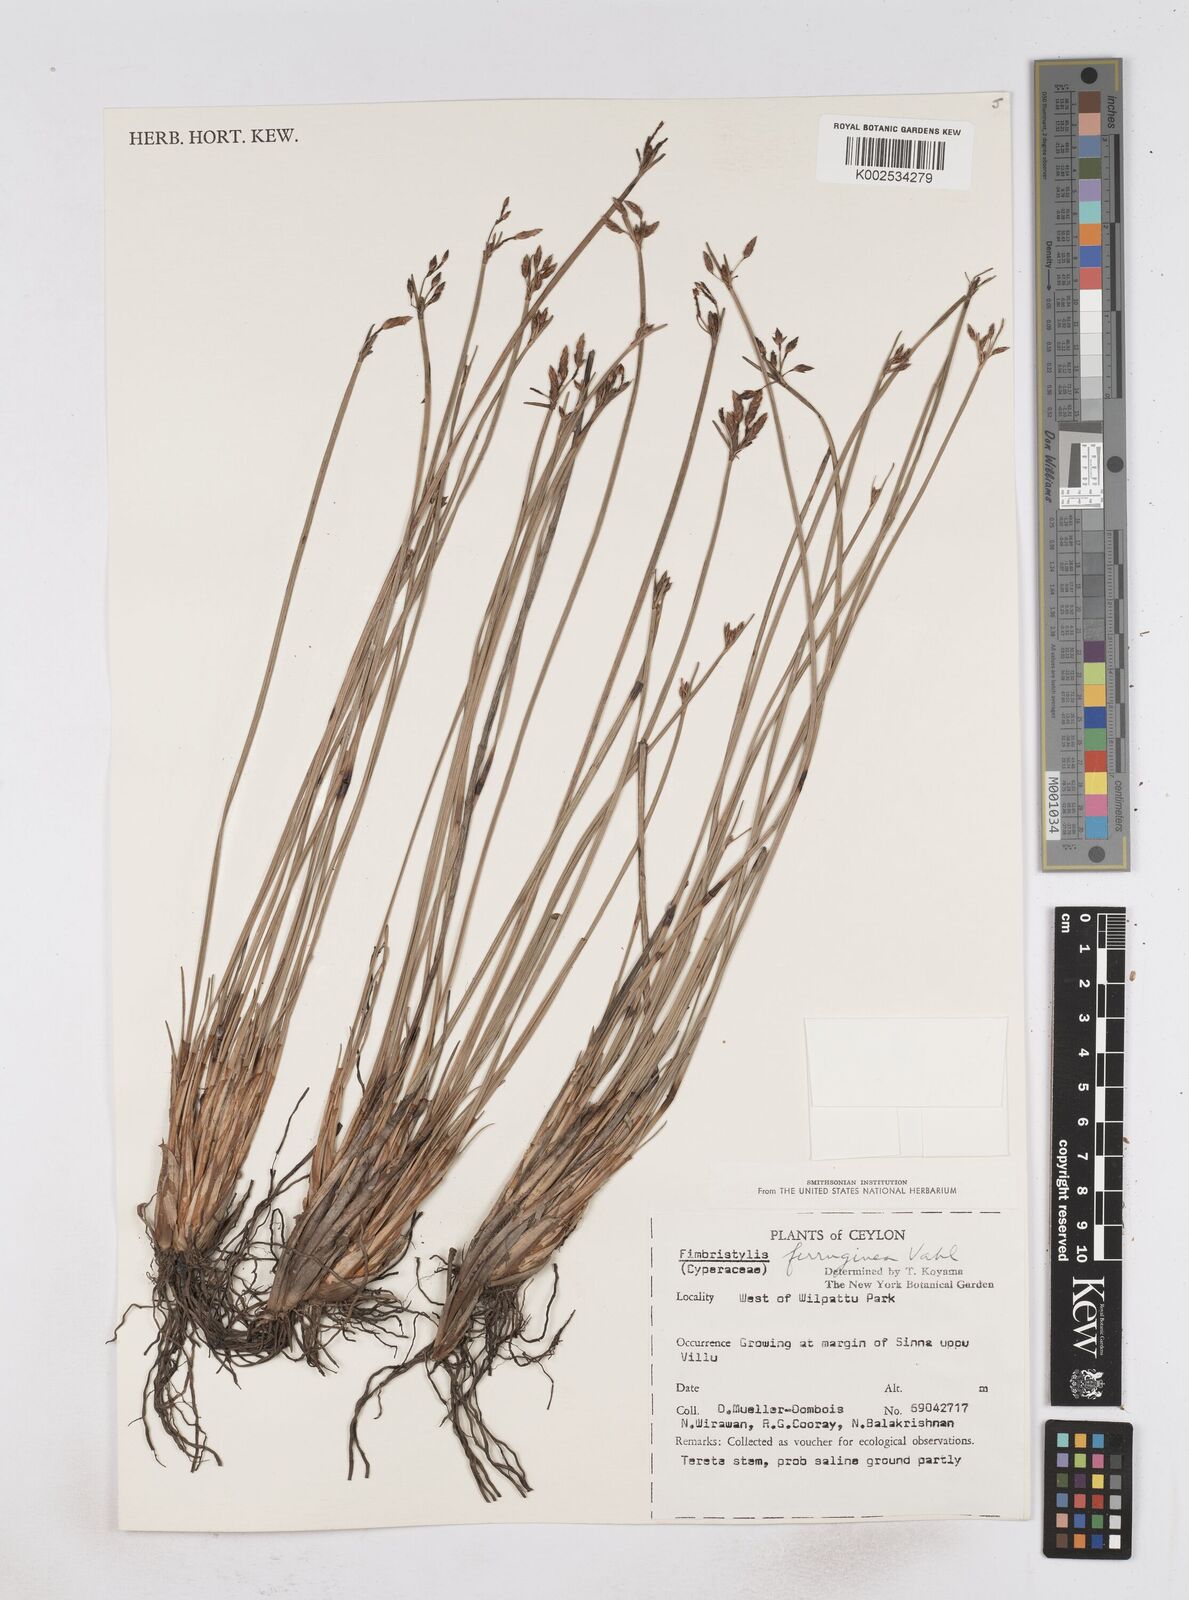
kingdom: Plantae
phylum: Tracheophyta
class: Liliopsida
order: Poales
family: Cyperaceae
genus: Fimbristylis
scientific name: Fimbristylis ferruginea
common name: West indian fimbry
